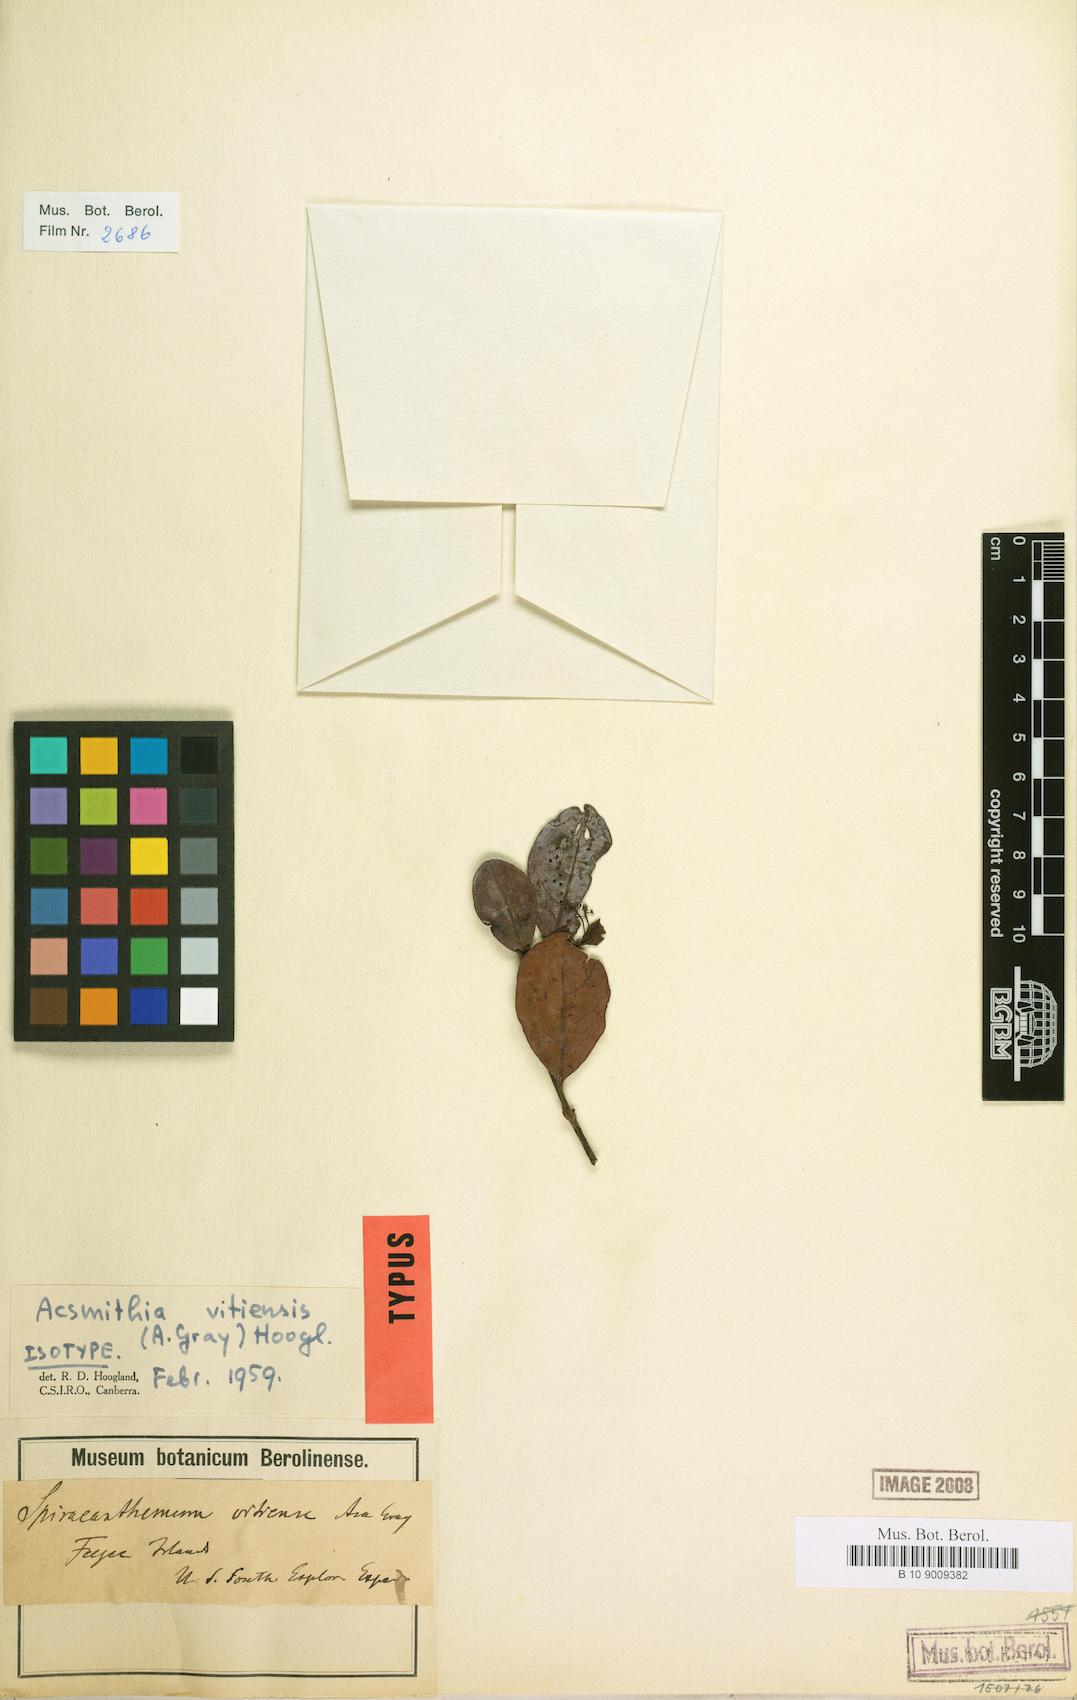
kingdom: Plantae
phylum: Tracheophyta
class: Magnoliopsida
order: Oxalidales
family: Cunoniaceae
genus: Spiraeanthemum
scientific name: Spiraeanthemum vitiense
